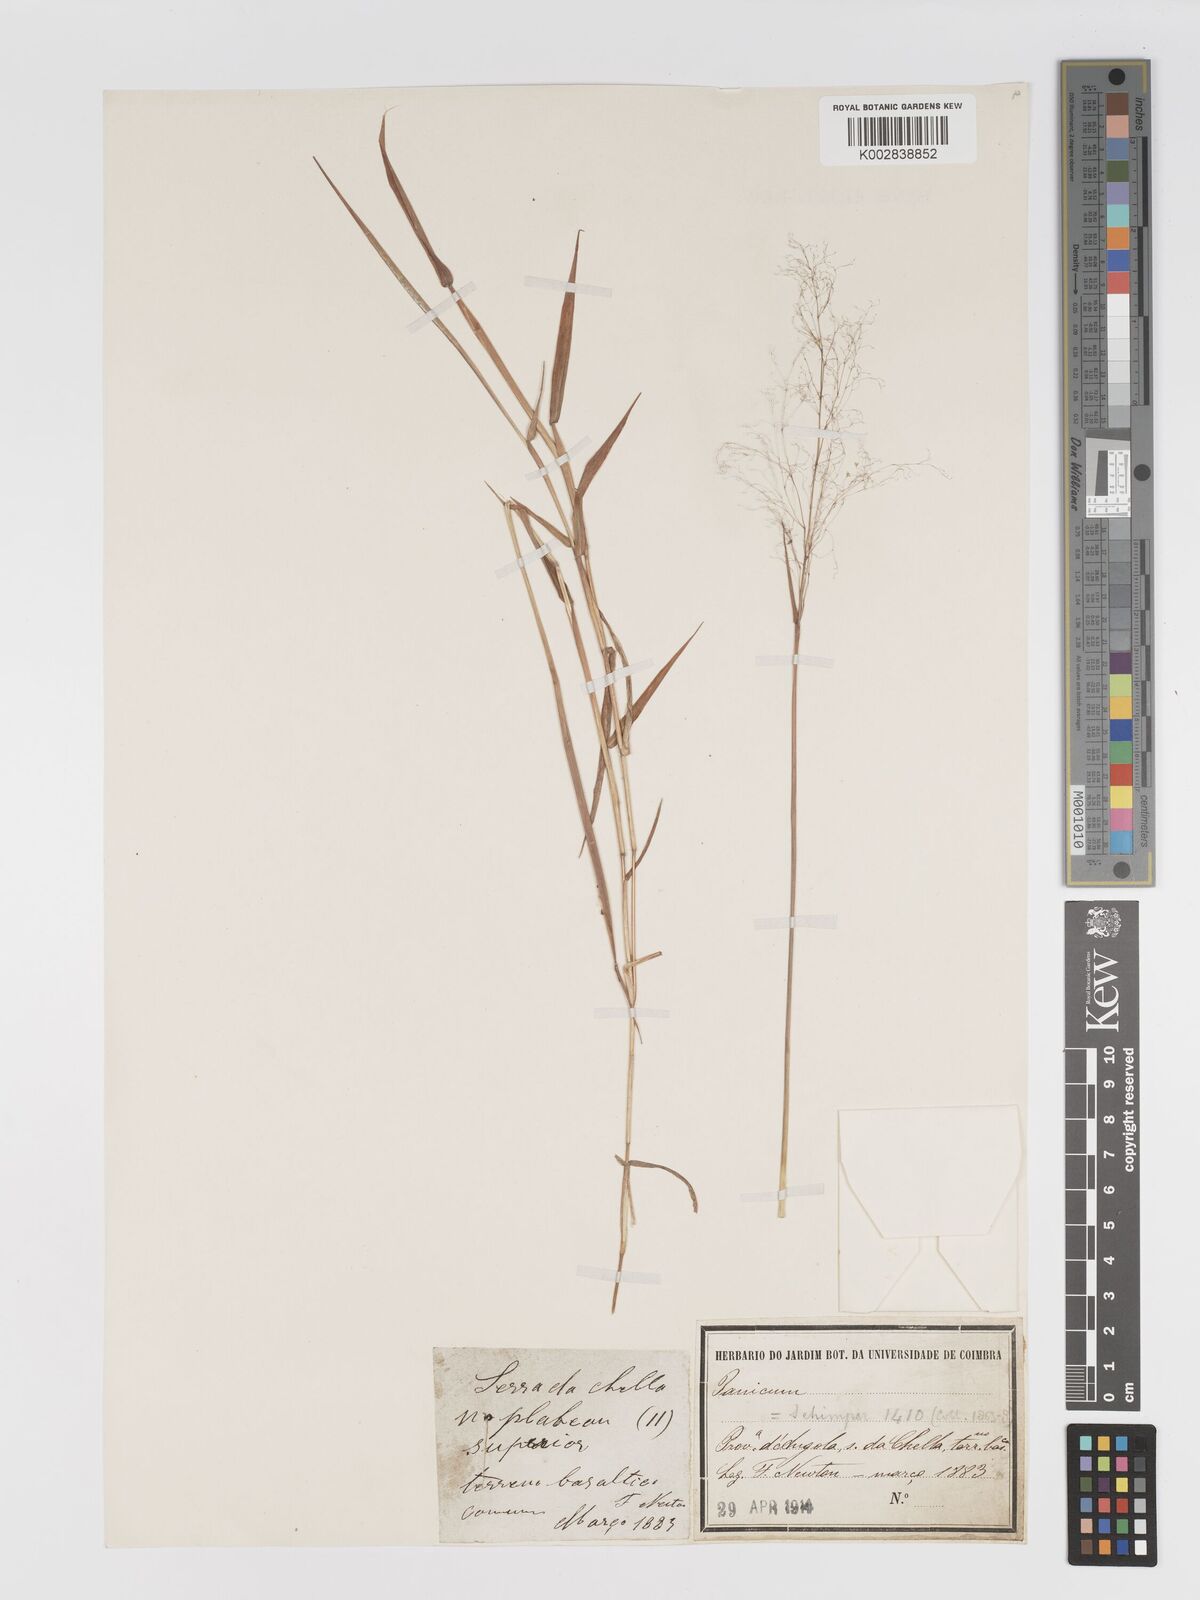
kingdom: Plantae
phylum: Tracheophyta
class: Liliopsida
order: Poales
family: Poaceae
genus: Melinis
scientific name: Melinis tenuissima
